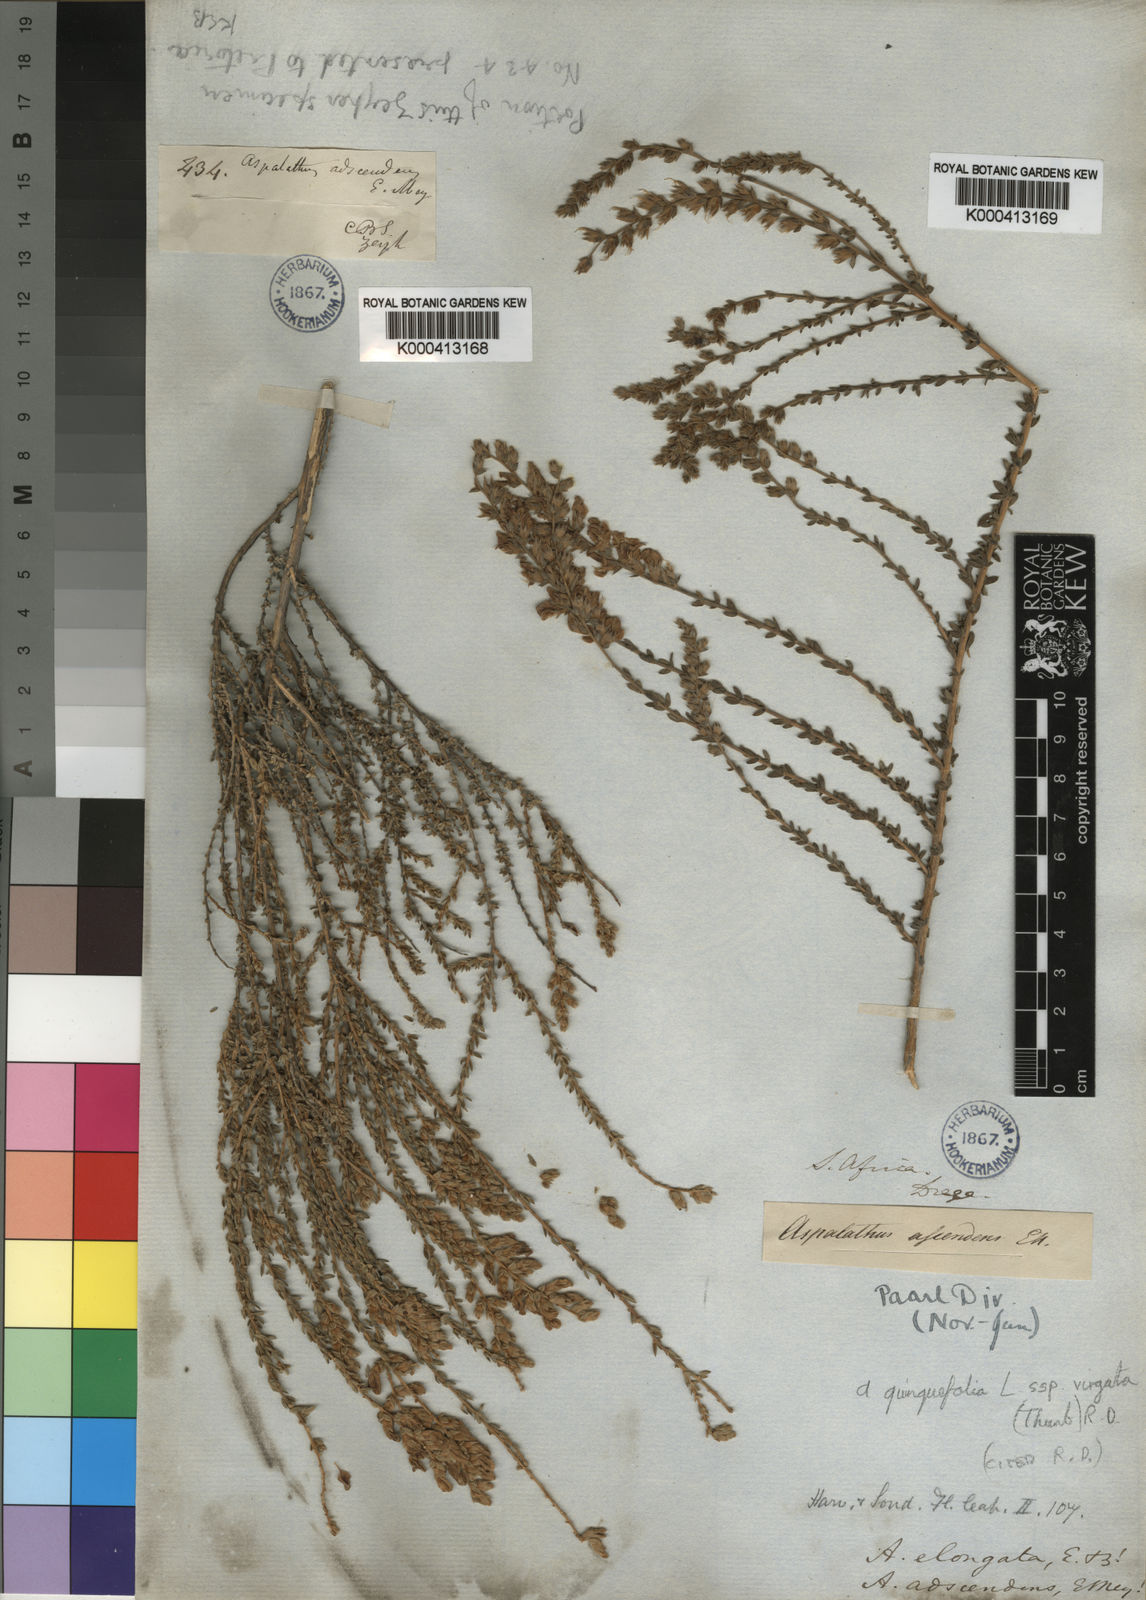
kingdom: Plantae
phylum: Tracheophyta
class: Magnoliopsida
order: Fabales
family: Fabaceae
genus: Aspalathus
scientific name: Aspalathus quinquefolia
